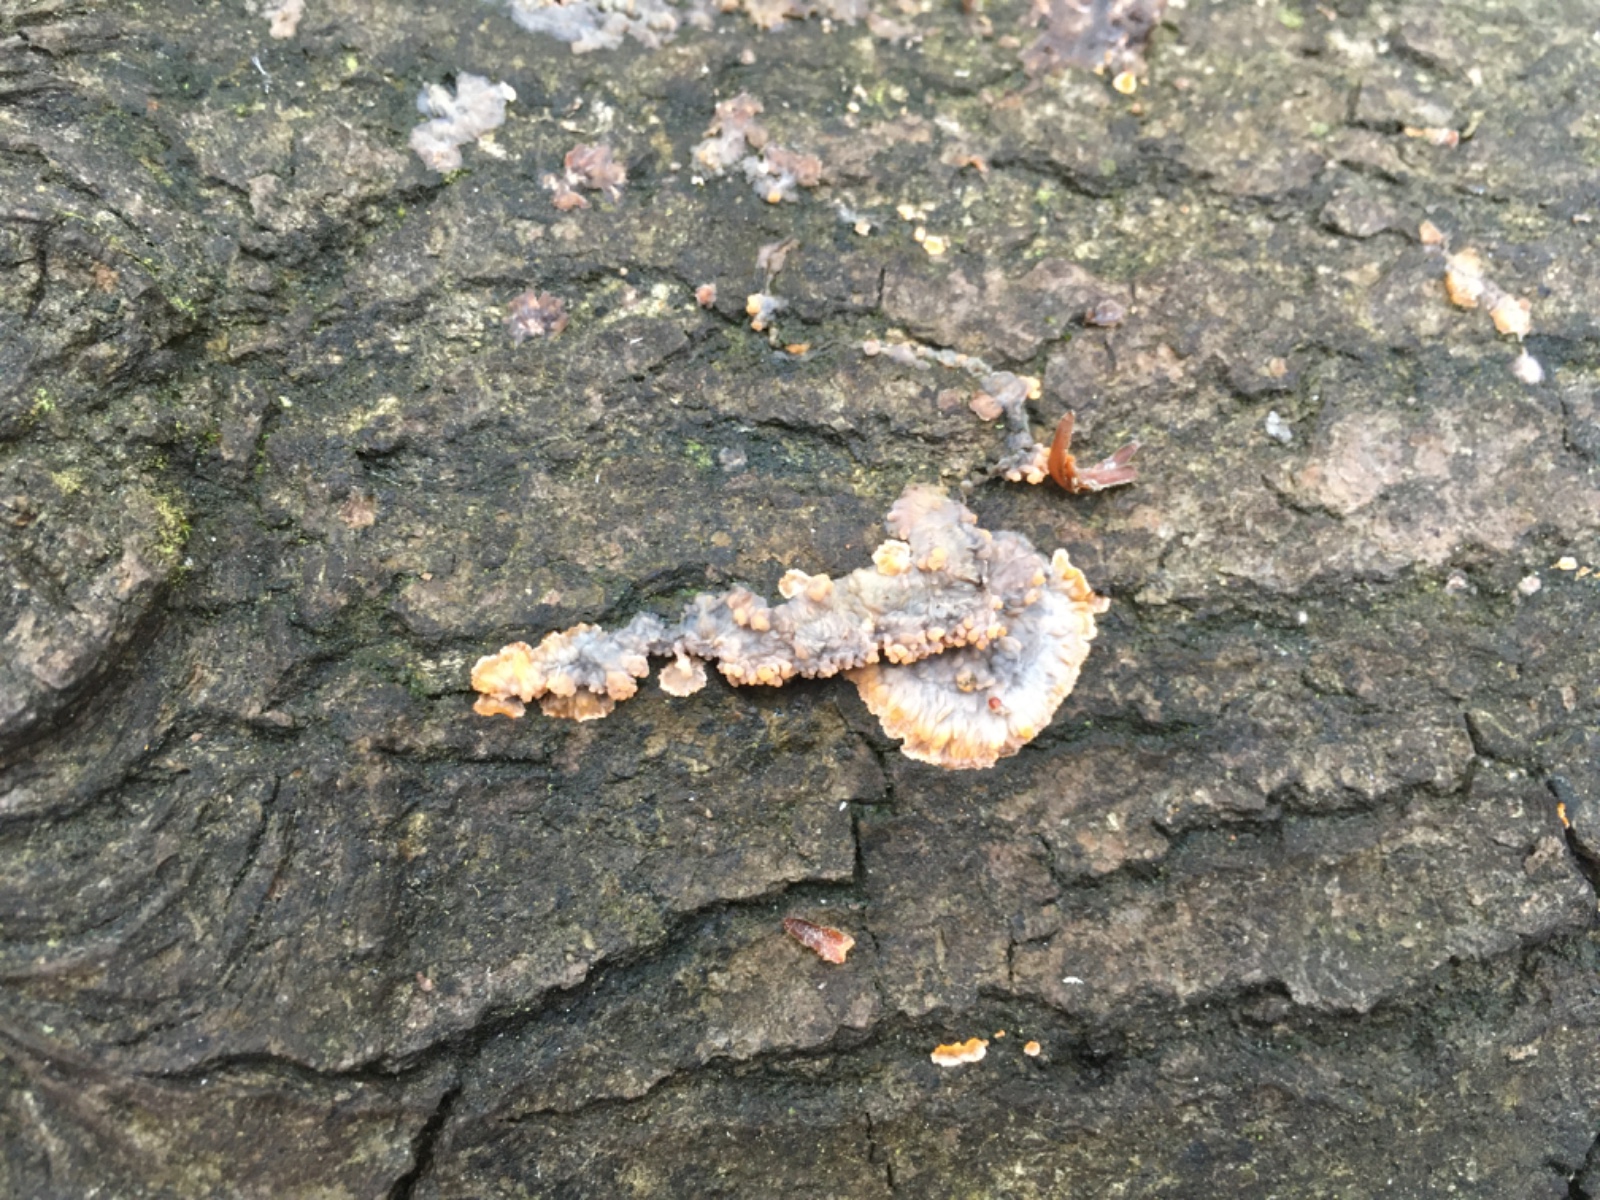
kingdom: Fungi
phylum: Basidiomycota
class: Agaricomycetes
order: Polyporales
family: Meruliaceae
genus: Phlebia
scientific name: Phlebia radiata
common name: stråle-åresvamp
